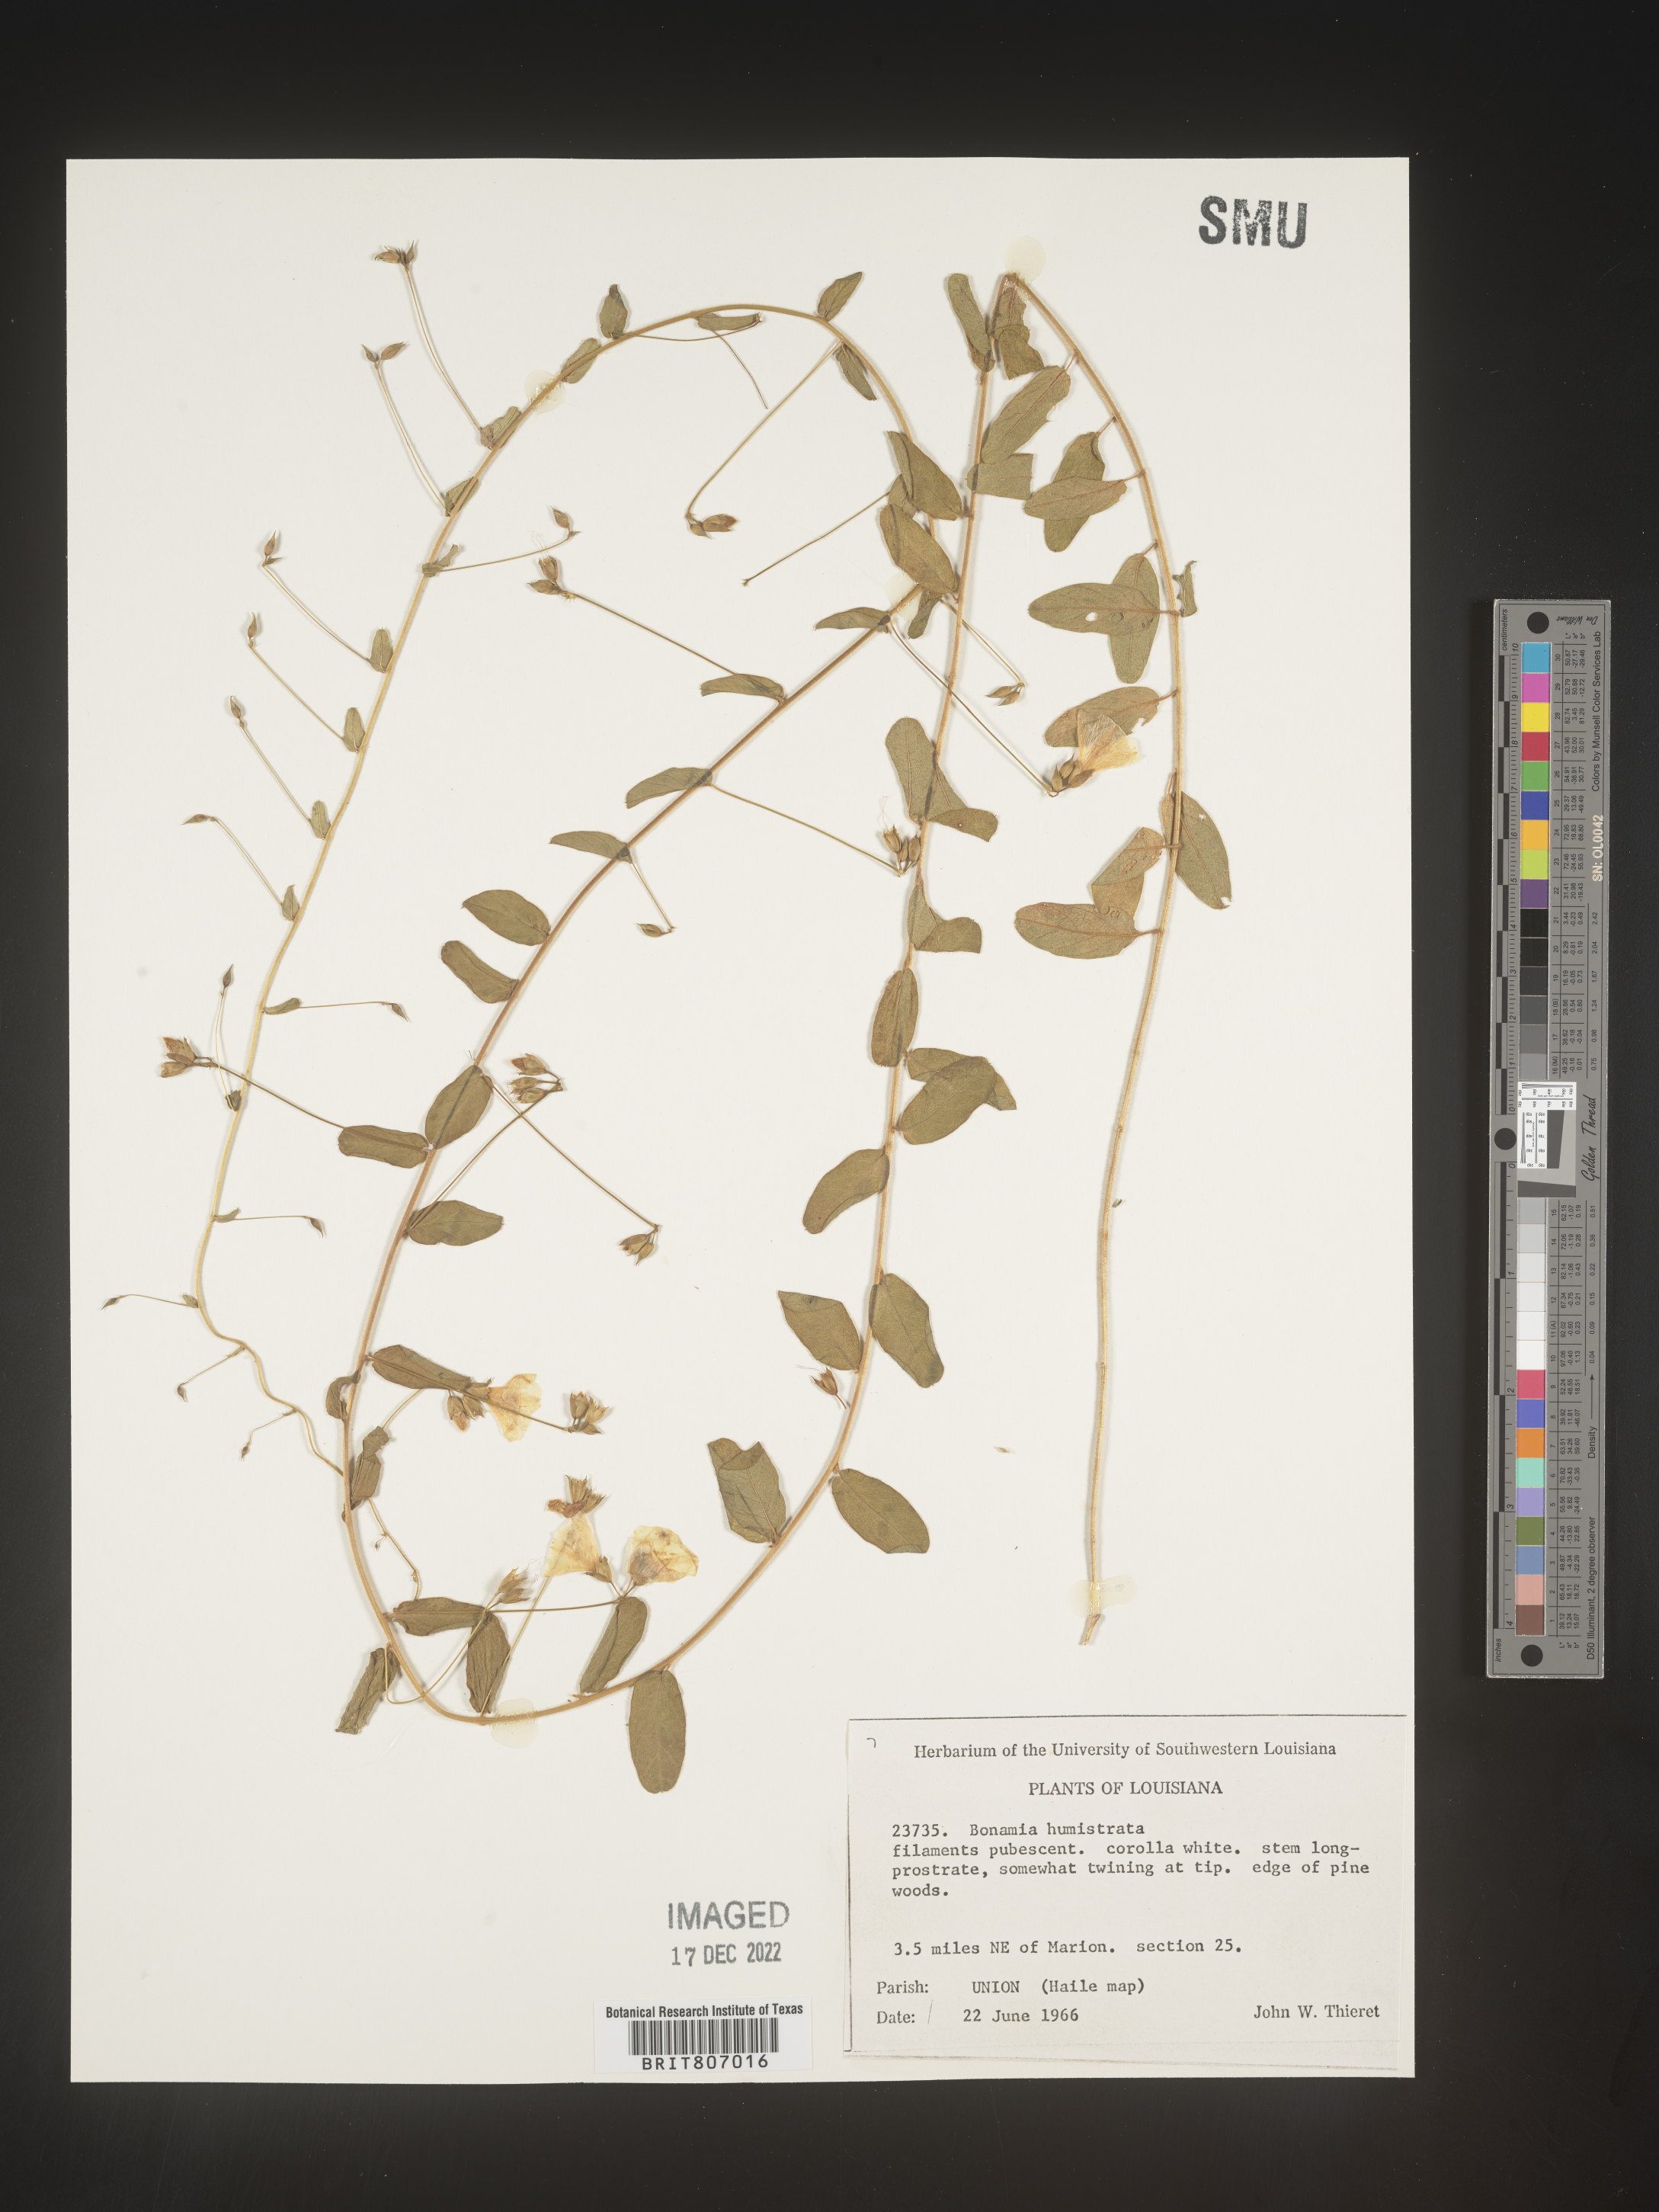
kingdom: Plantae
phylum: Tracheophyta
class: Magnoliopsida
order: Solanales
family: Convolvulaceae
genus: Stylisma
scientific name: Stylisma humistrata
